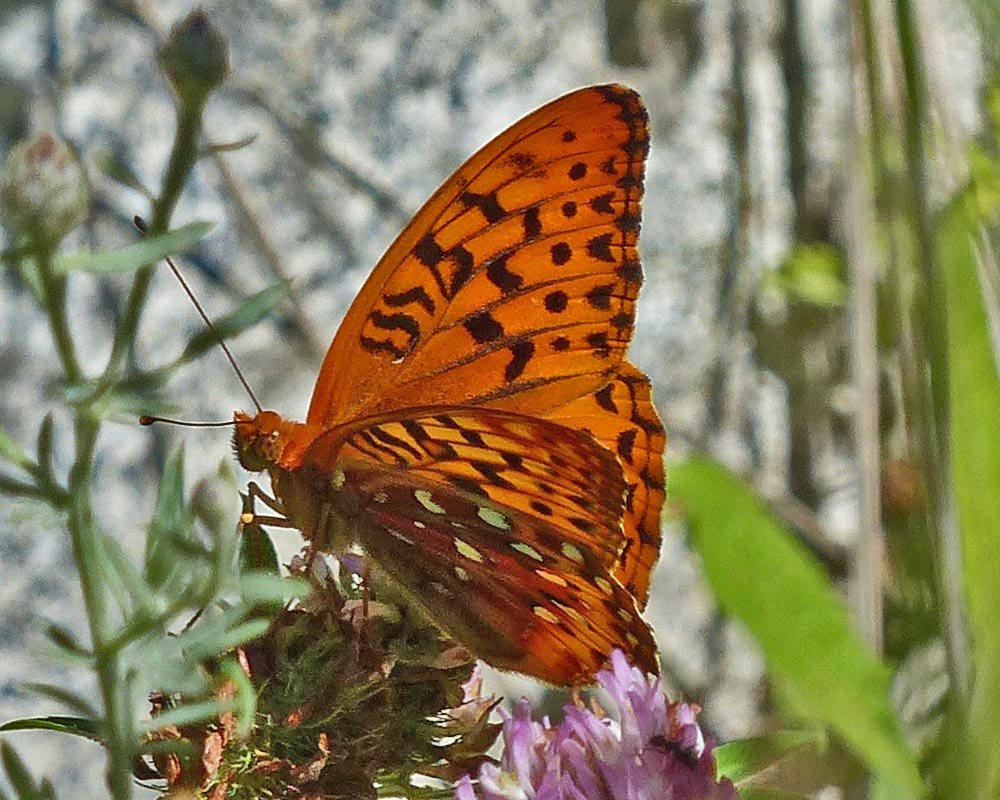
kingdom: Animalia
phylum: Arthropoda
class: Insecta
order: Lepidoptera
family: Nymphalidae
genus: Speyeria
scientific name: Speyeria cybele
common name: Great Spangled Fritillary
